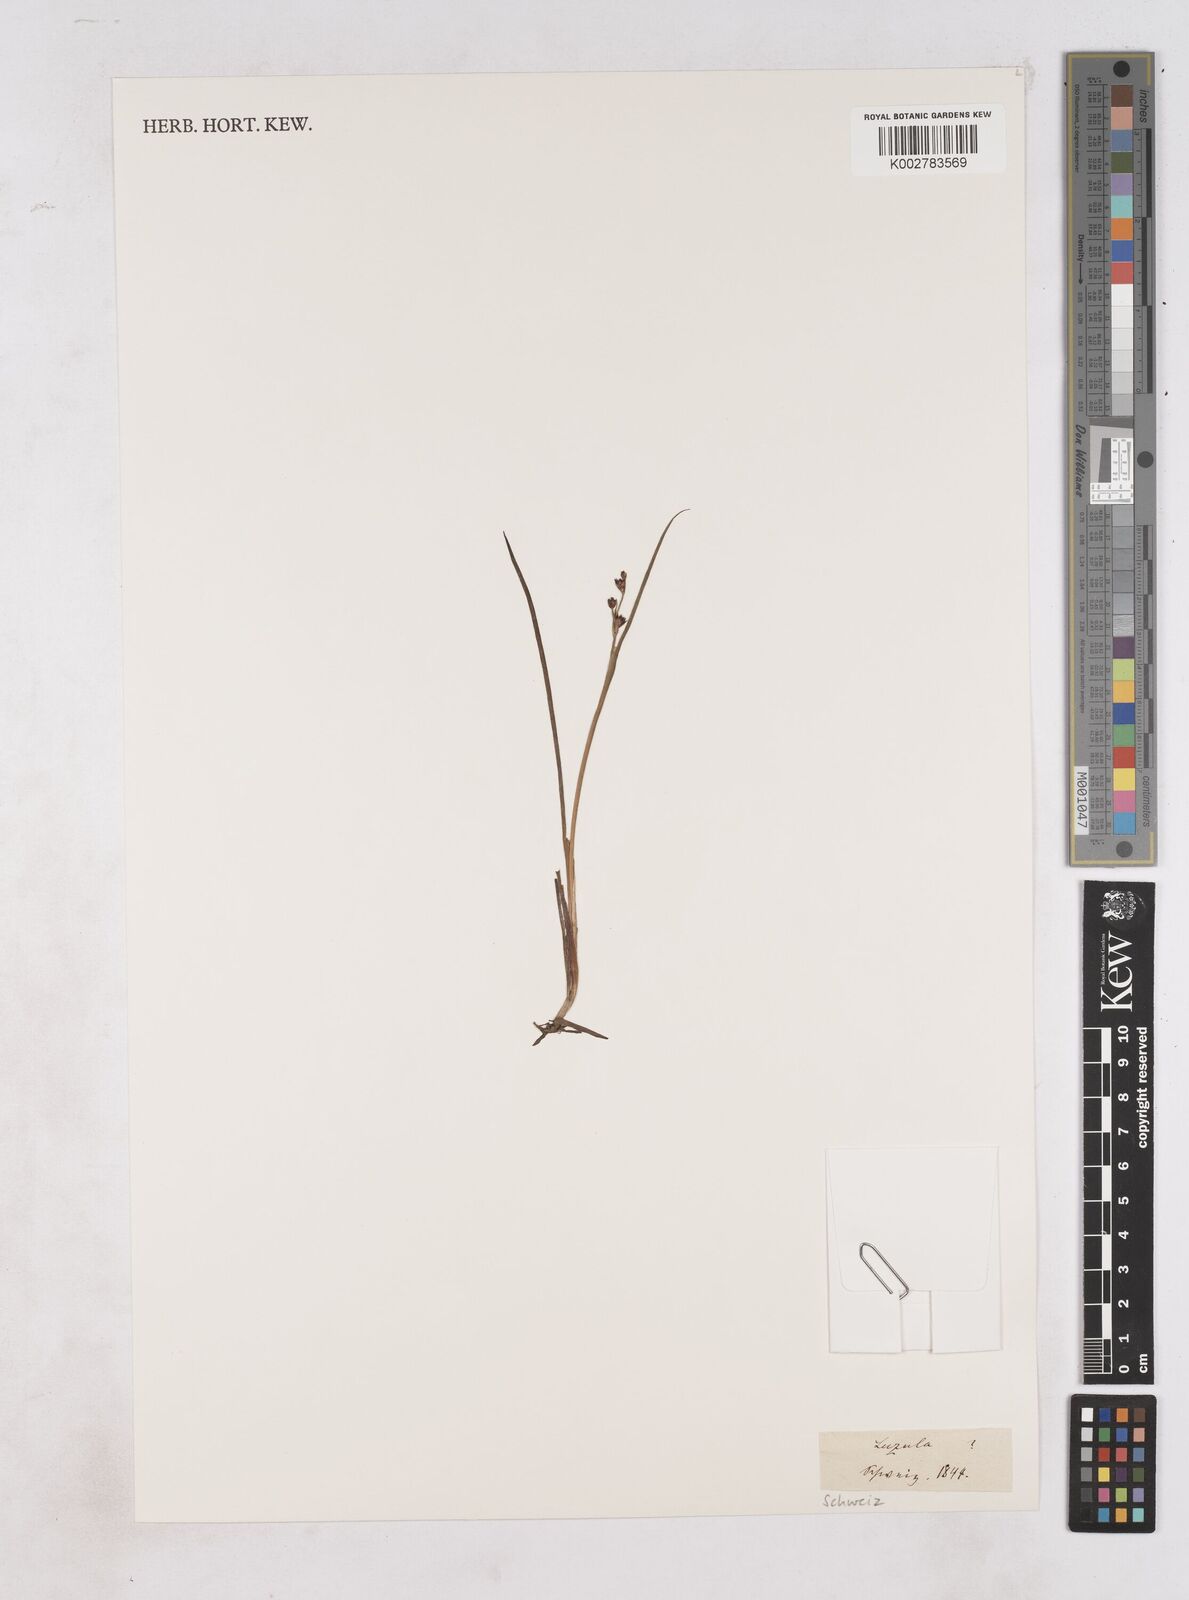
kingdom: Plantae
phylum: Tracheophyta
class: Liliopsida
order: Poales
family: Juncaceae
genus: Luzula
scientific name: Luzula
